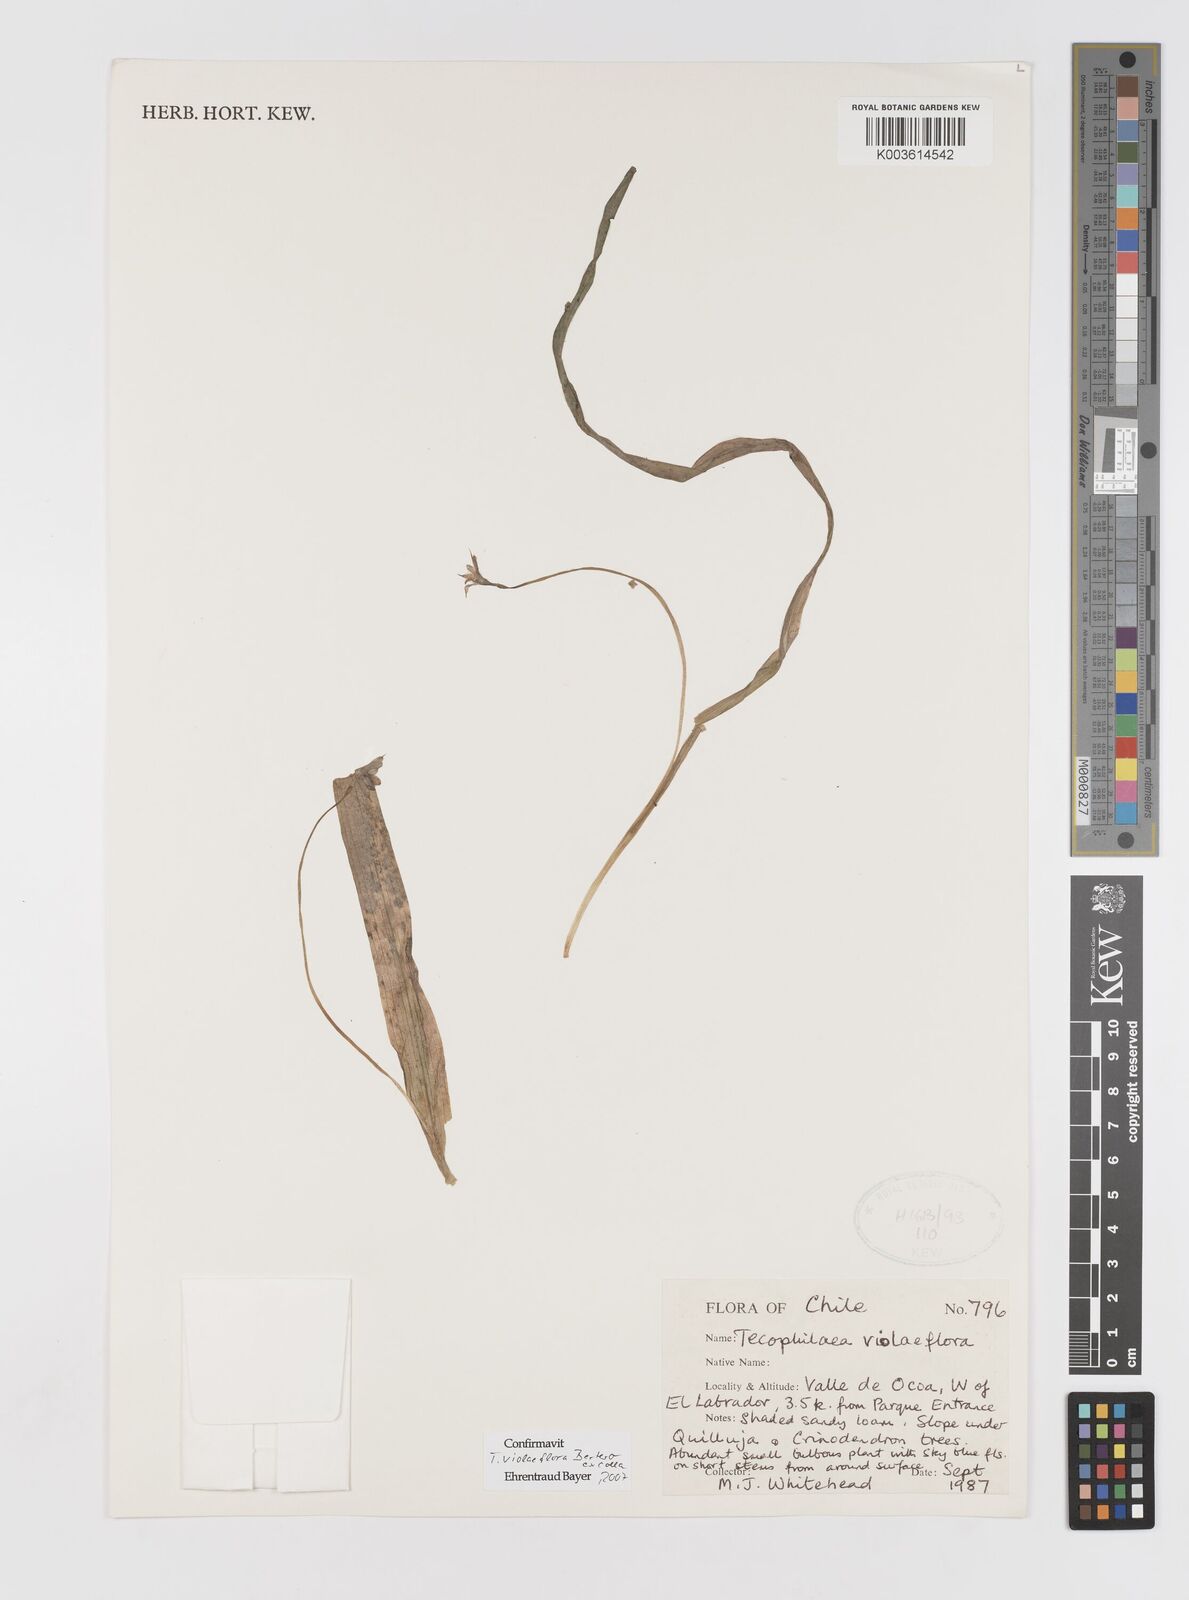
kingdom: Plantae
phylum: Tracheophyta
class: Liliopsida
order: Asparagales
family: Tecophilaeaceae
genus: Tecophilaea
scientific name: Tecophilaea violiflora
